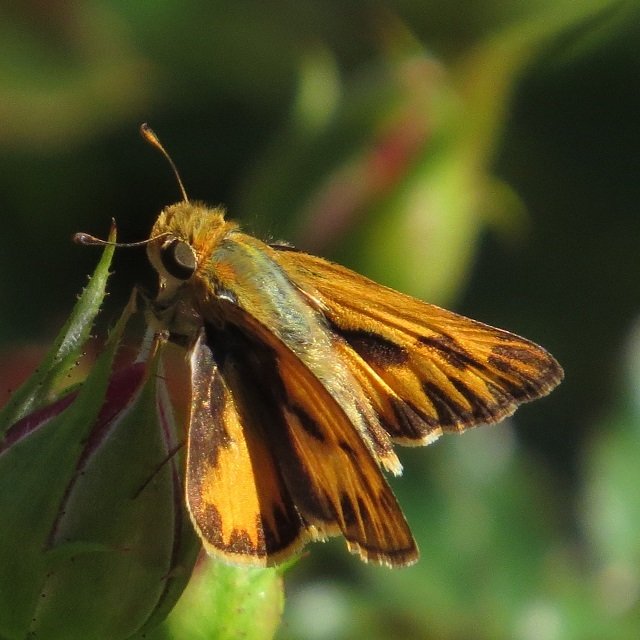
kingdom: Animalia
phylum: Arthropoda
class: Insecta
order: Lepidoptera
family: Hesperiidae
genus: Hylephila
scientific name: Hylephila phyleus
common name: Fiery Skipper
